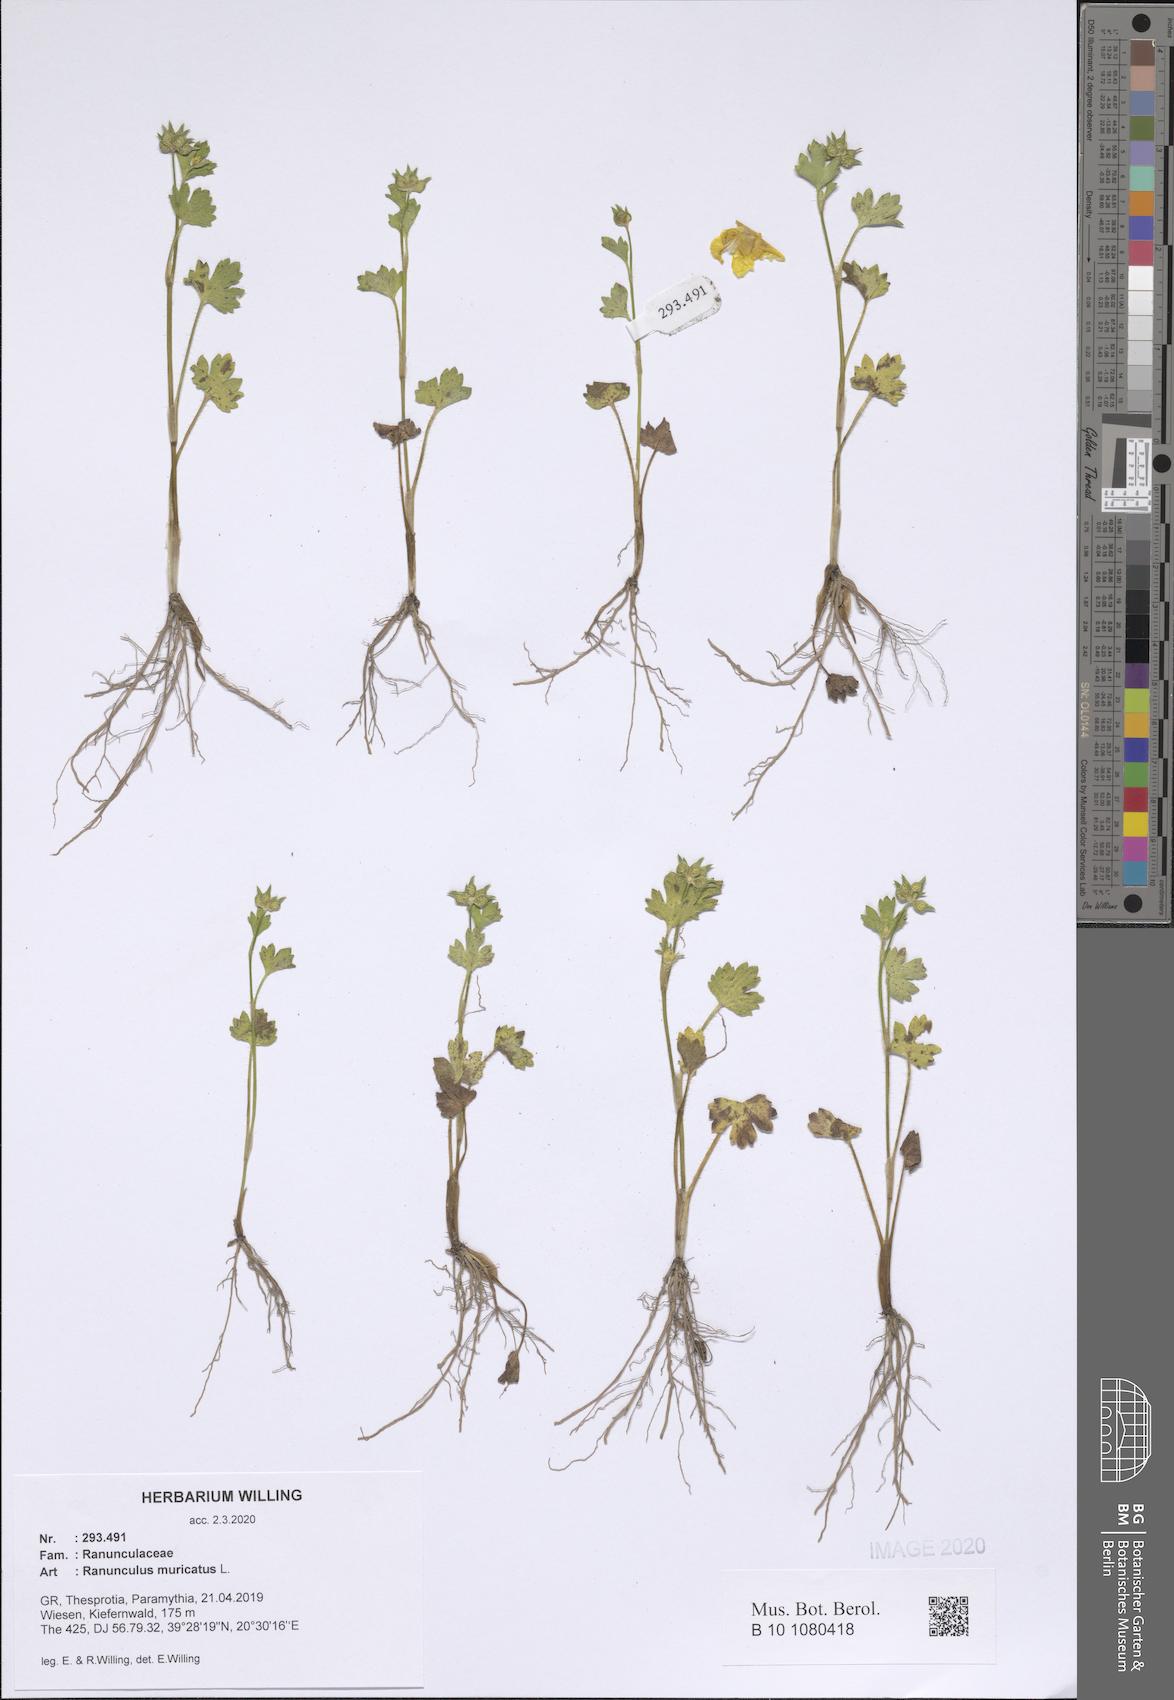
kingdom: Plantae
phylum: Tracheophyta
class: Magnoliopsida
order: Ranunculales
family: Ranunculaceae
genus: Ranunculus
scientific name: Ranunculus muricatus
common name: Rough-fruited buttercup
